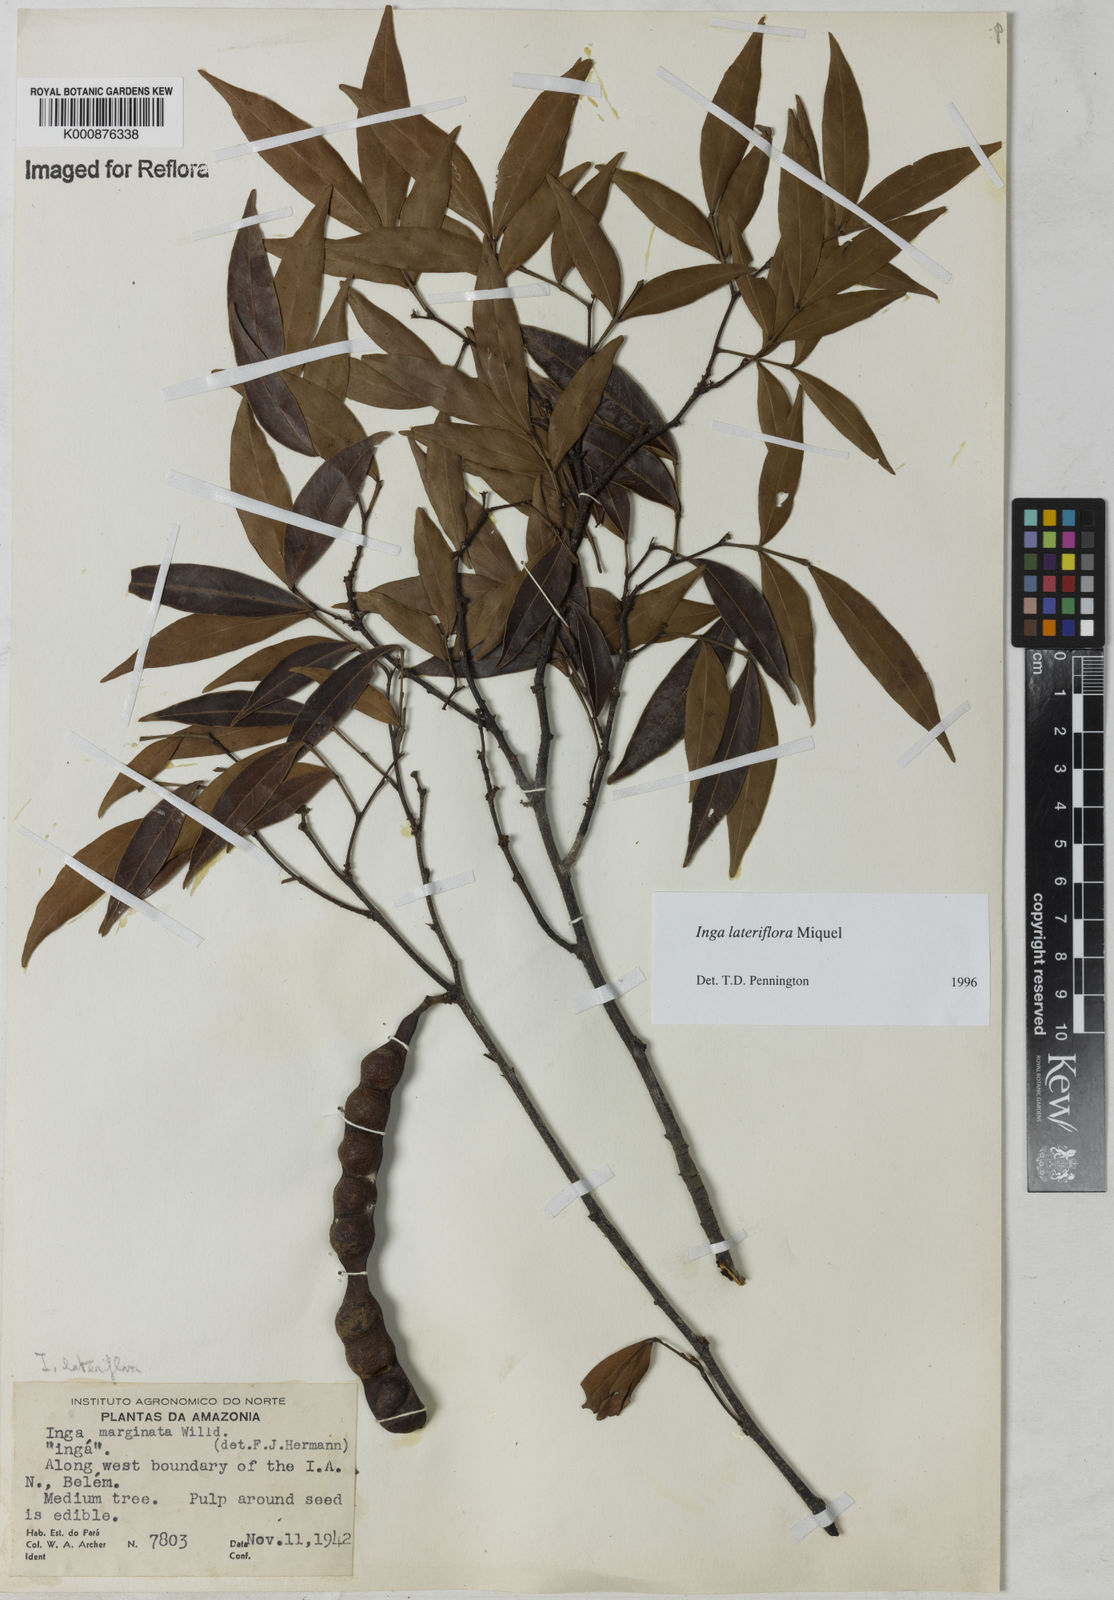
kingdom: Plantae
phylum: Tracheophyta
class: Magnoliopsida
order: Fabales
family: Fabaceae
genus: Inga
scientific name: Inga lateriflora
